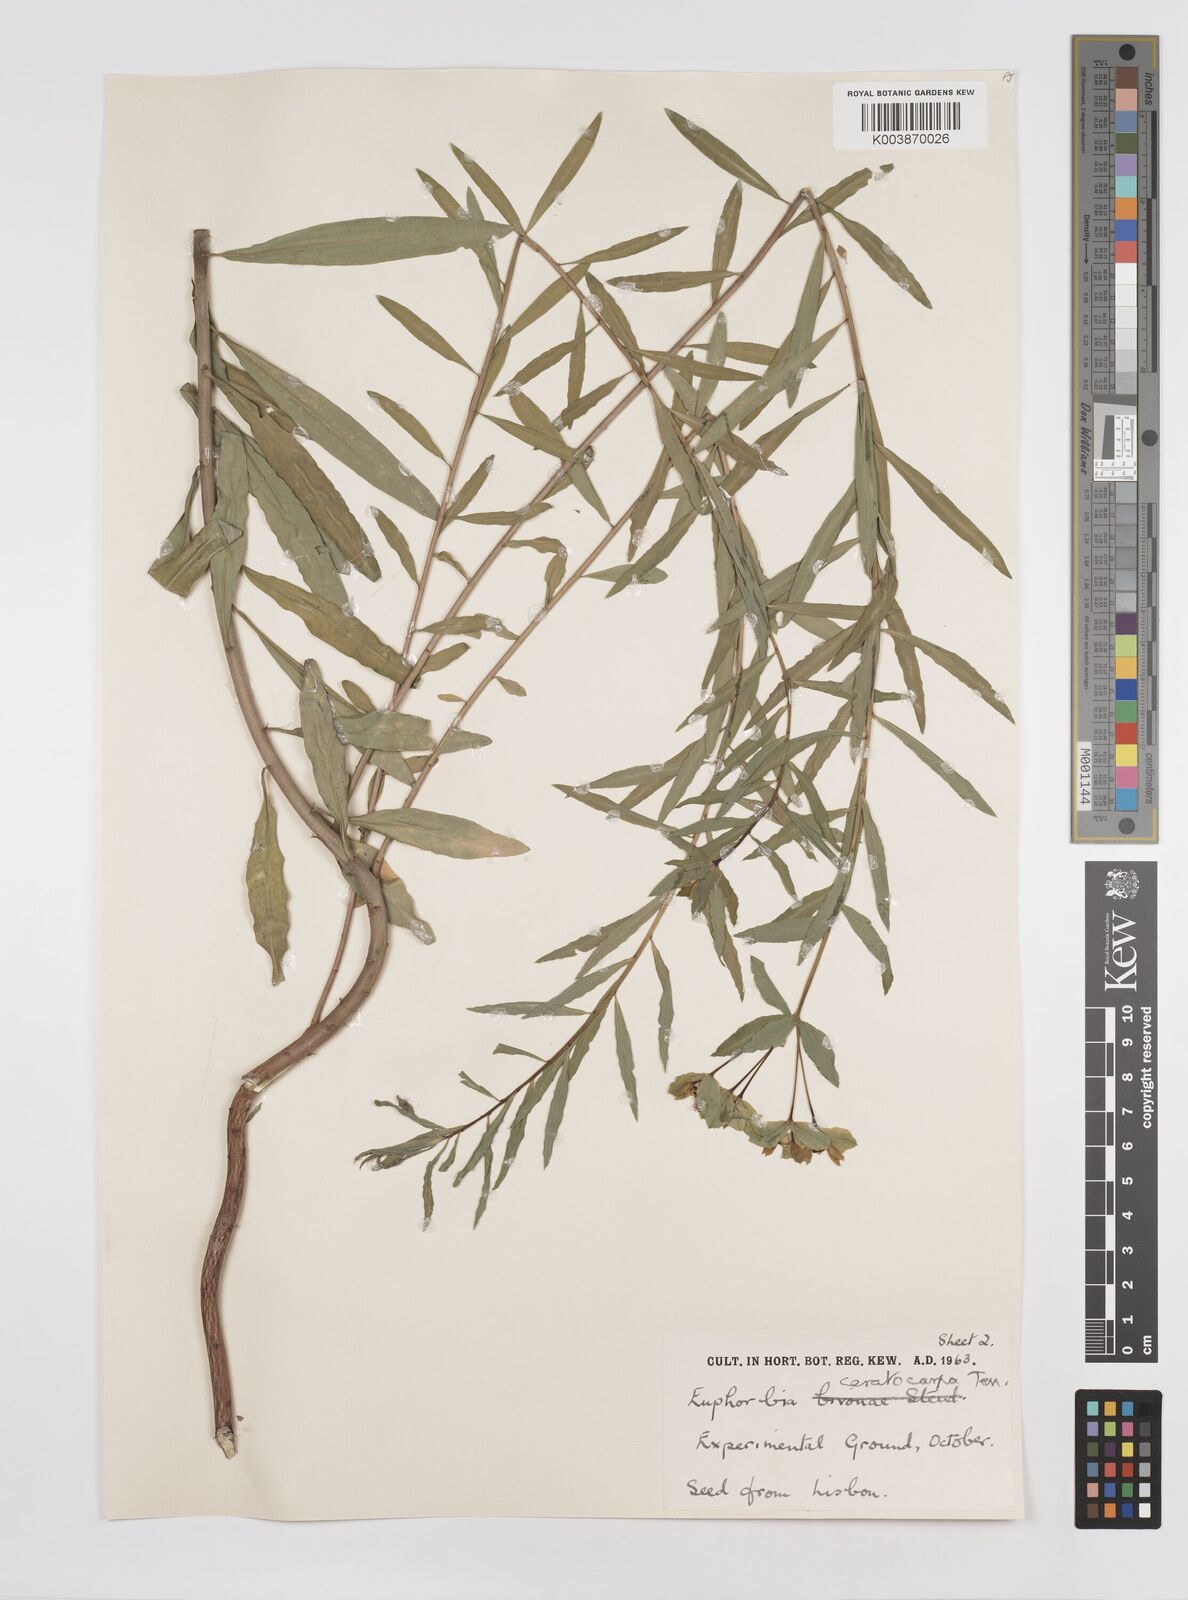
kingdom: Plantae
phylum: Tracheophyta
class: Magnoliopsida
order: Malpighiales
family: Euphorbiaceae
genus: Euphorbia
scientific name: Euphorbia ceratocarpa
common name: Horned spurge
